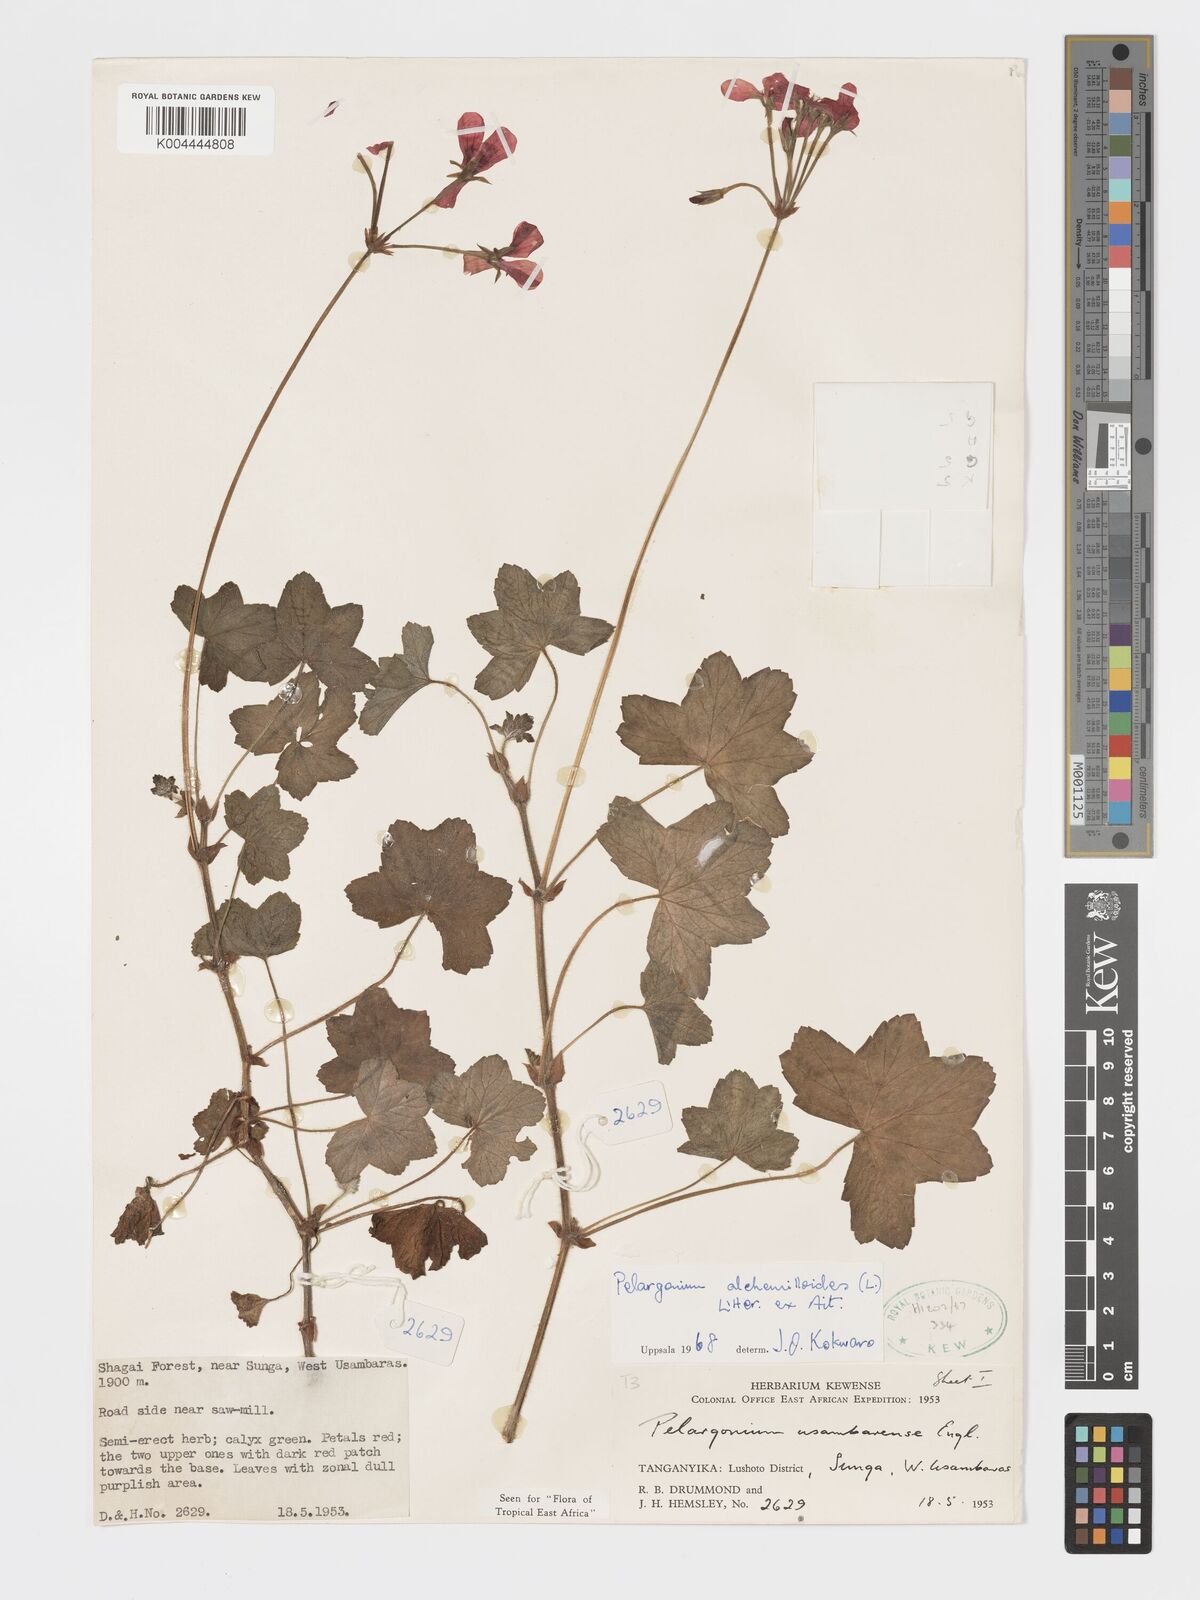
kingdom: Plantae
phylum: Tracheophyta
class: Magnoliopsida
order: Geraniales
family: Geraniaceae
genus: Pelargonium
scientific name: Pelargonium alchemilloides
